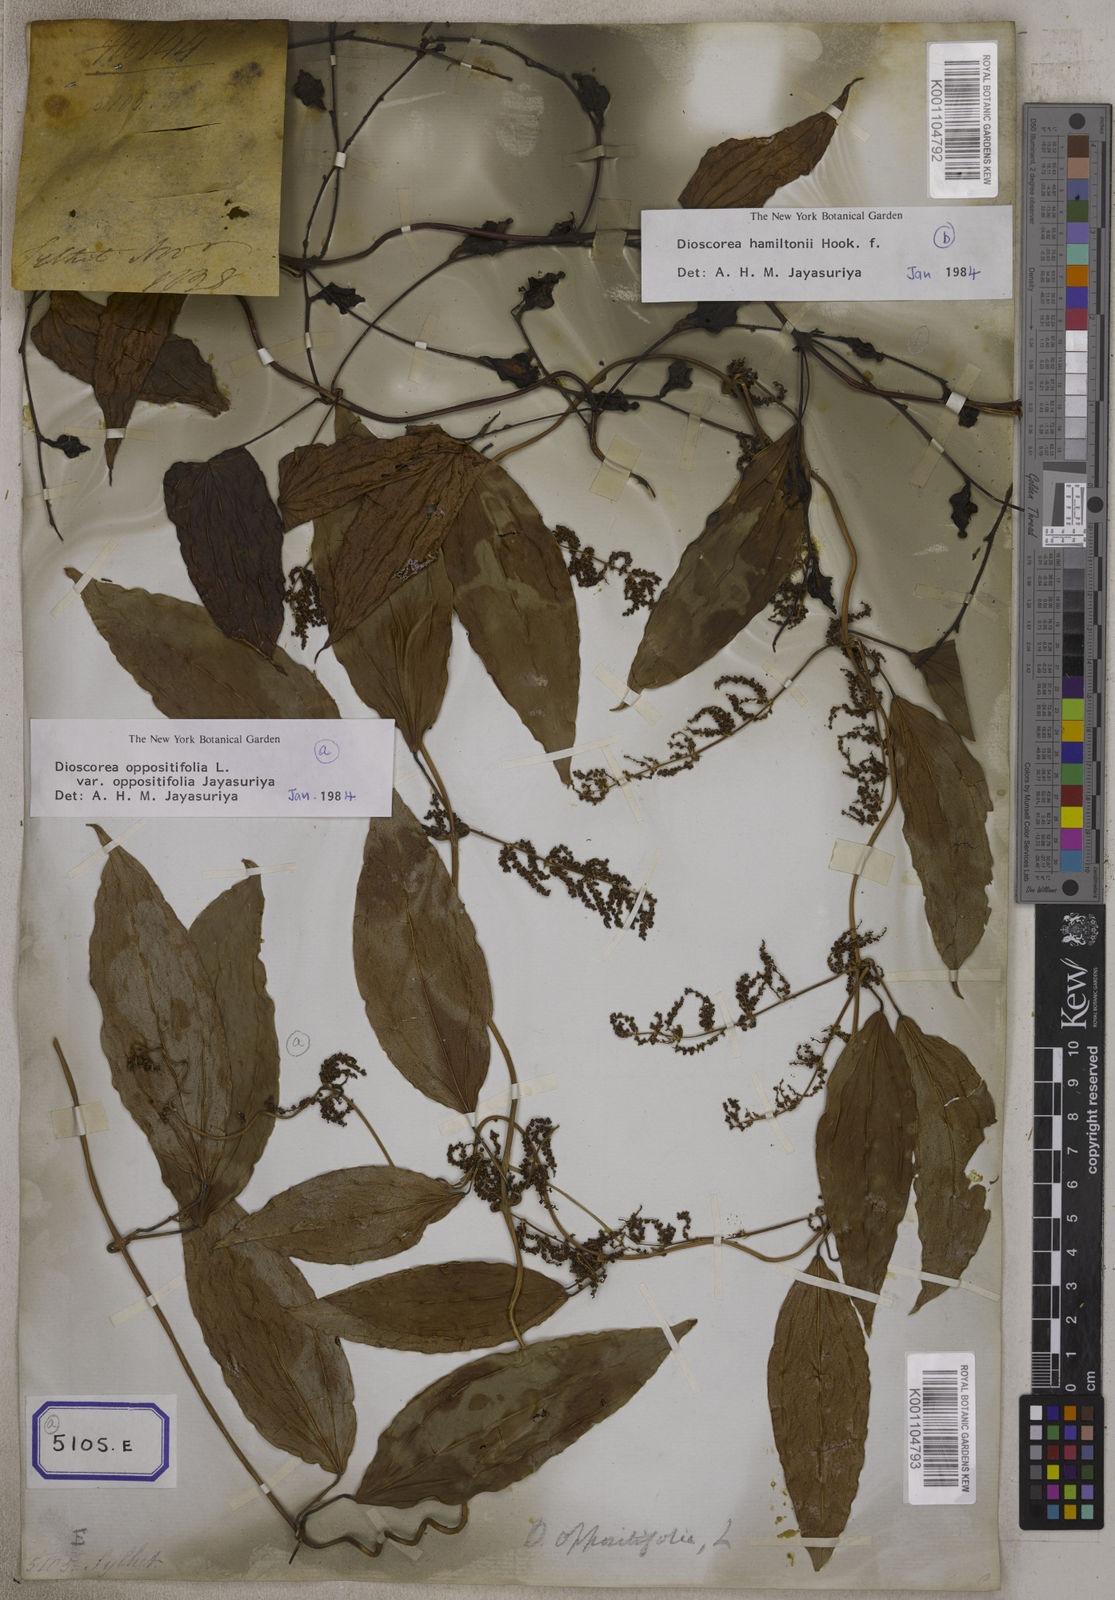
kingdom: Plantae
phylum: Tracheophyta
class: Liliopsida
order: Dioscoreales
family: Dioscoreaceae
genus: Dioscorea
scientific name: Dioscorea glabra
